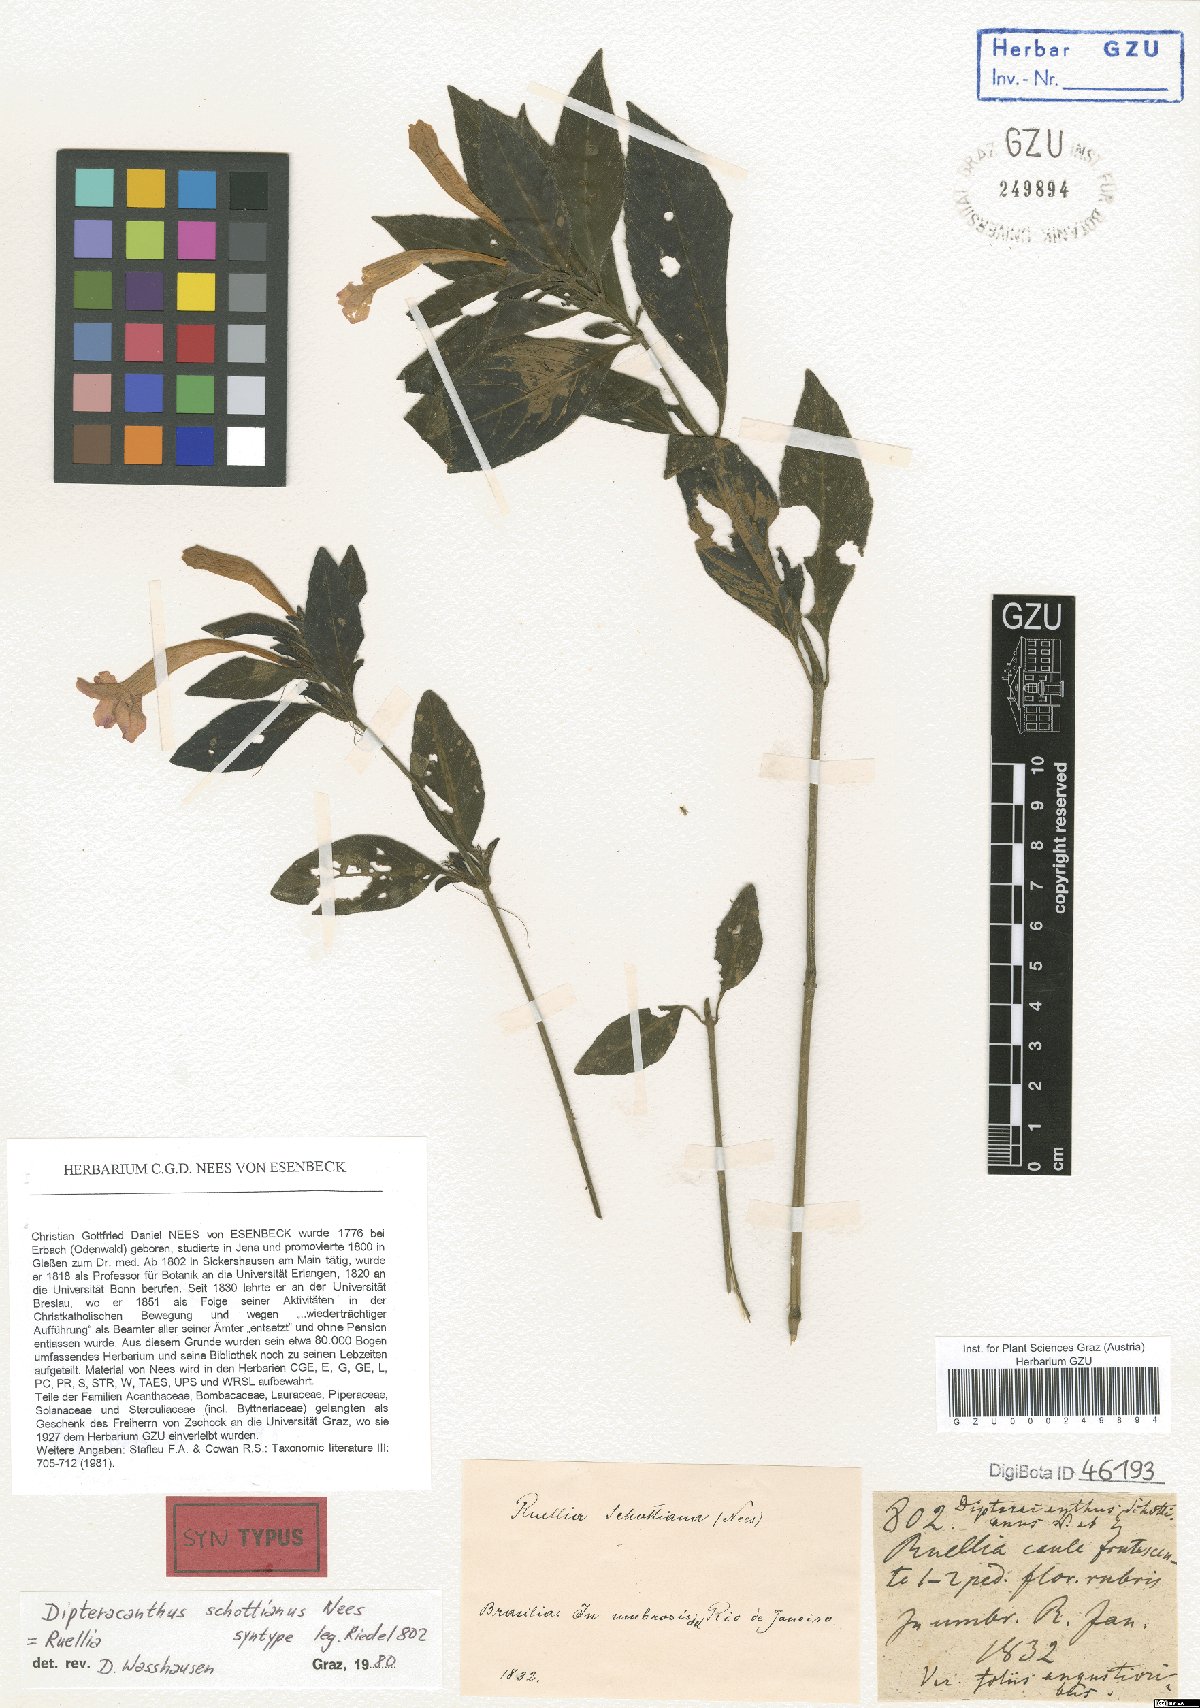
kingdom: Plantae
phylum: Tracheophyta
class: Magnoliopsida
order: Lamiales
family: Acanthaceae
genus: Ruellia
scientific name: Ruellia Dipteracanthus schottianus
